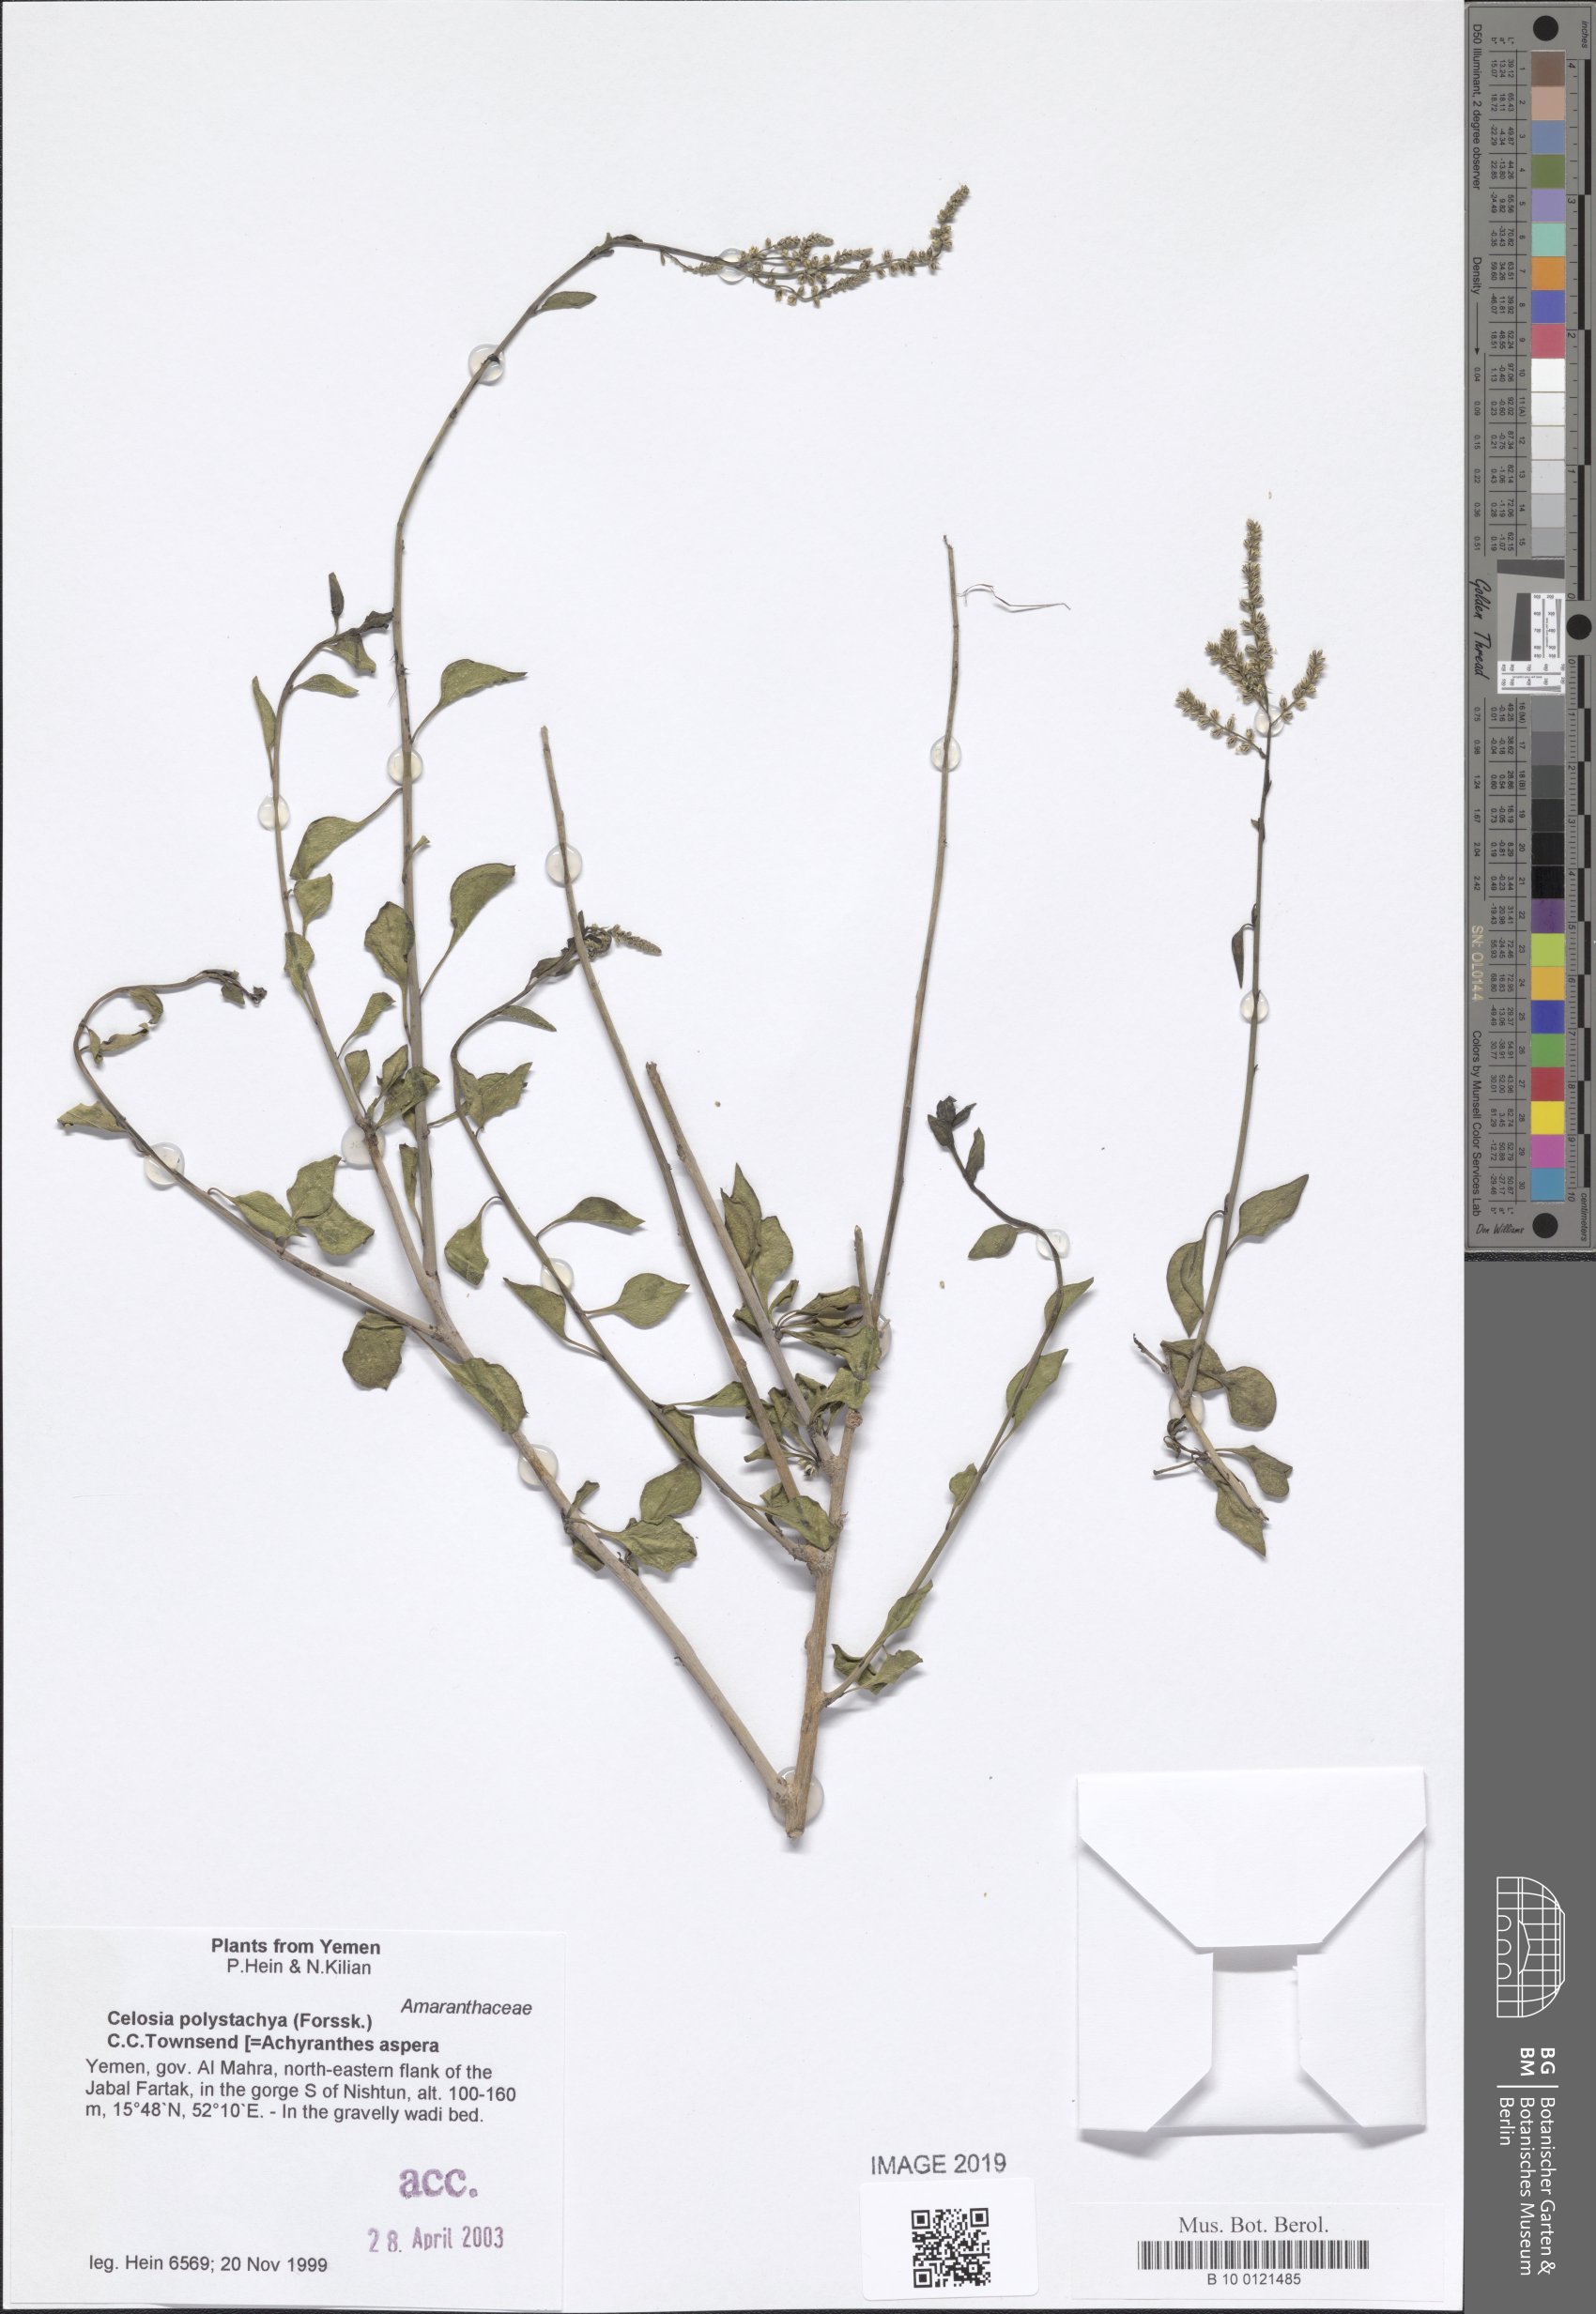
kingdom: Plantae
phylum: Tracheophyta
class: Magnoliopsida
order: Caryophyllales
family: Amaranthaceae
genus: Celosia
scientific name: Celosia polystachya
